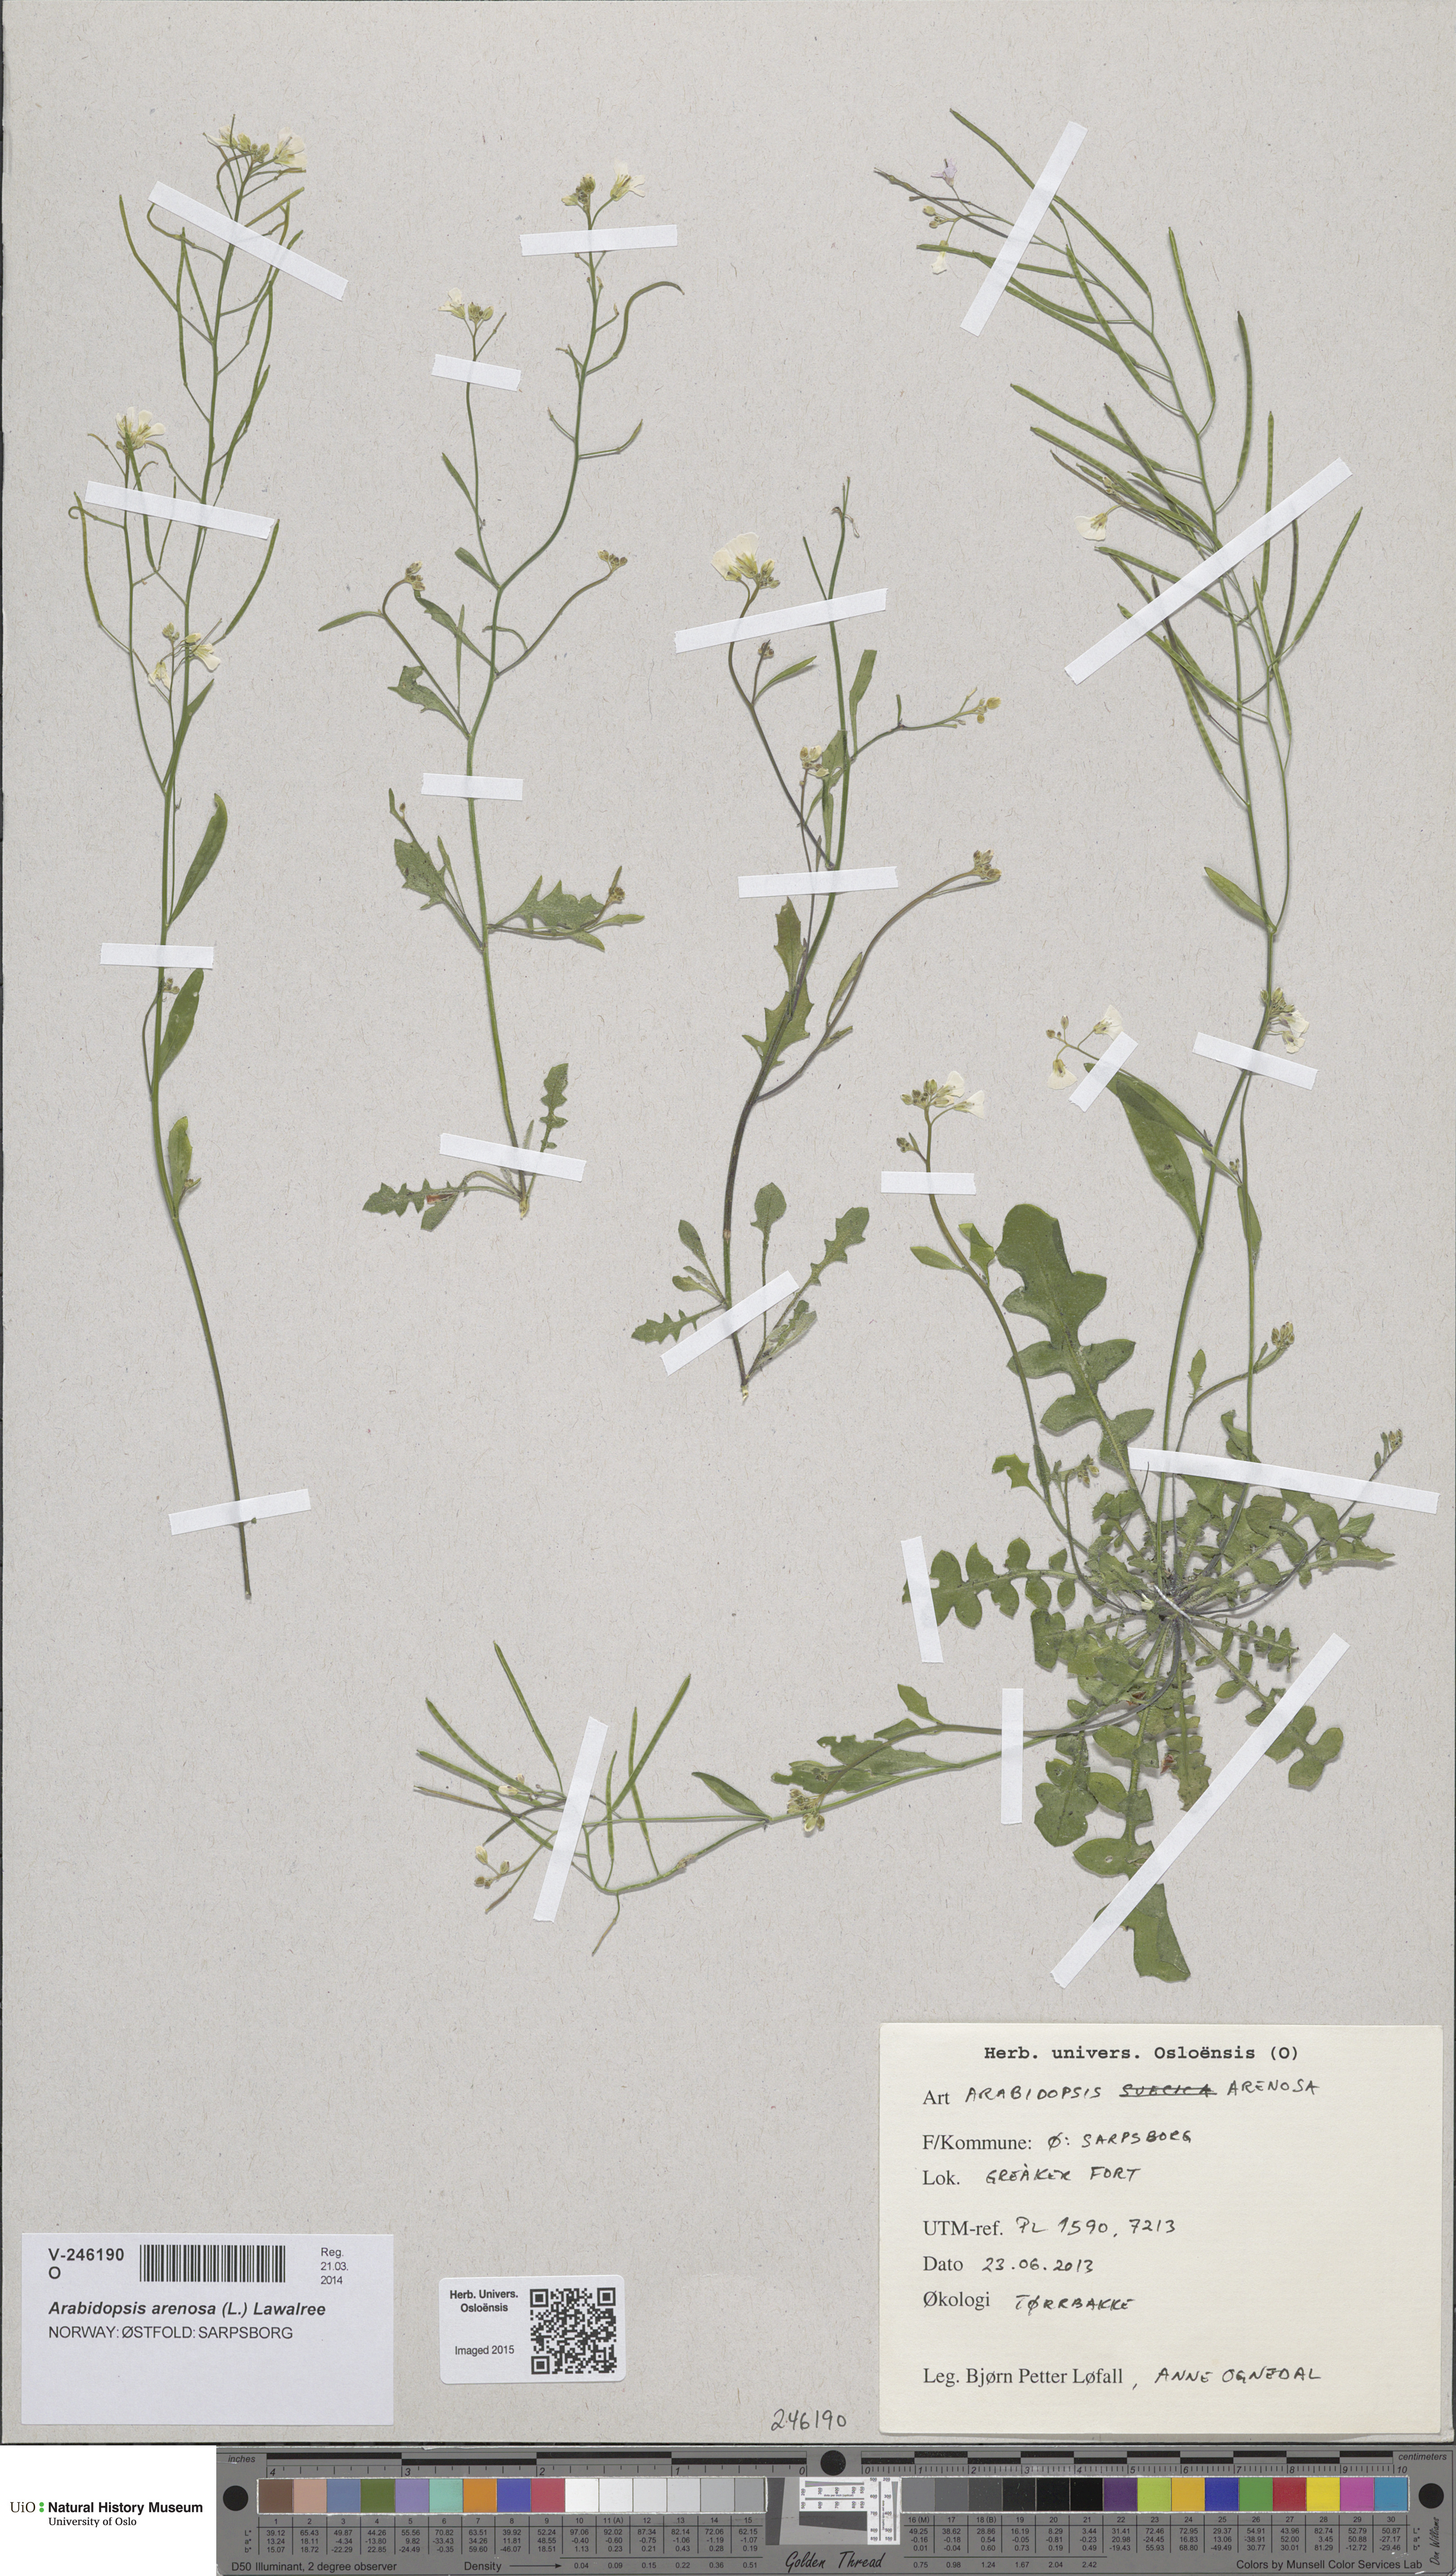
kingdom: Plantae
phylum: Tracheophyta
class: Magnoliopsida
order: Brassicales
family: Brassicaceae
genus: Arabidopsis
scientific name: Arabidopsis arenosa
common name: Sand rock-cress
